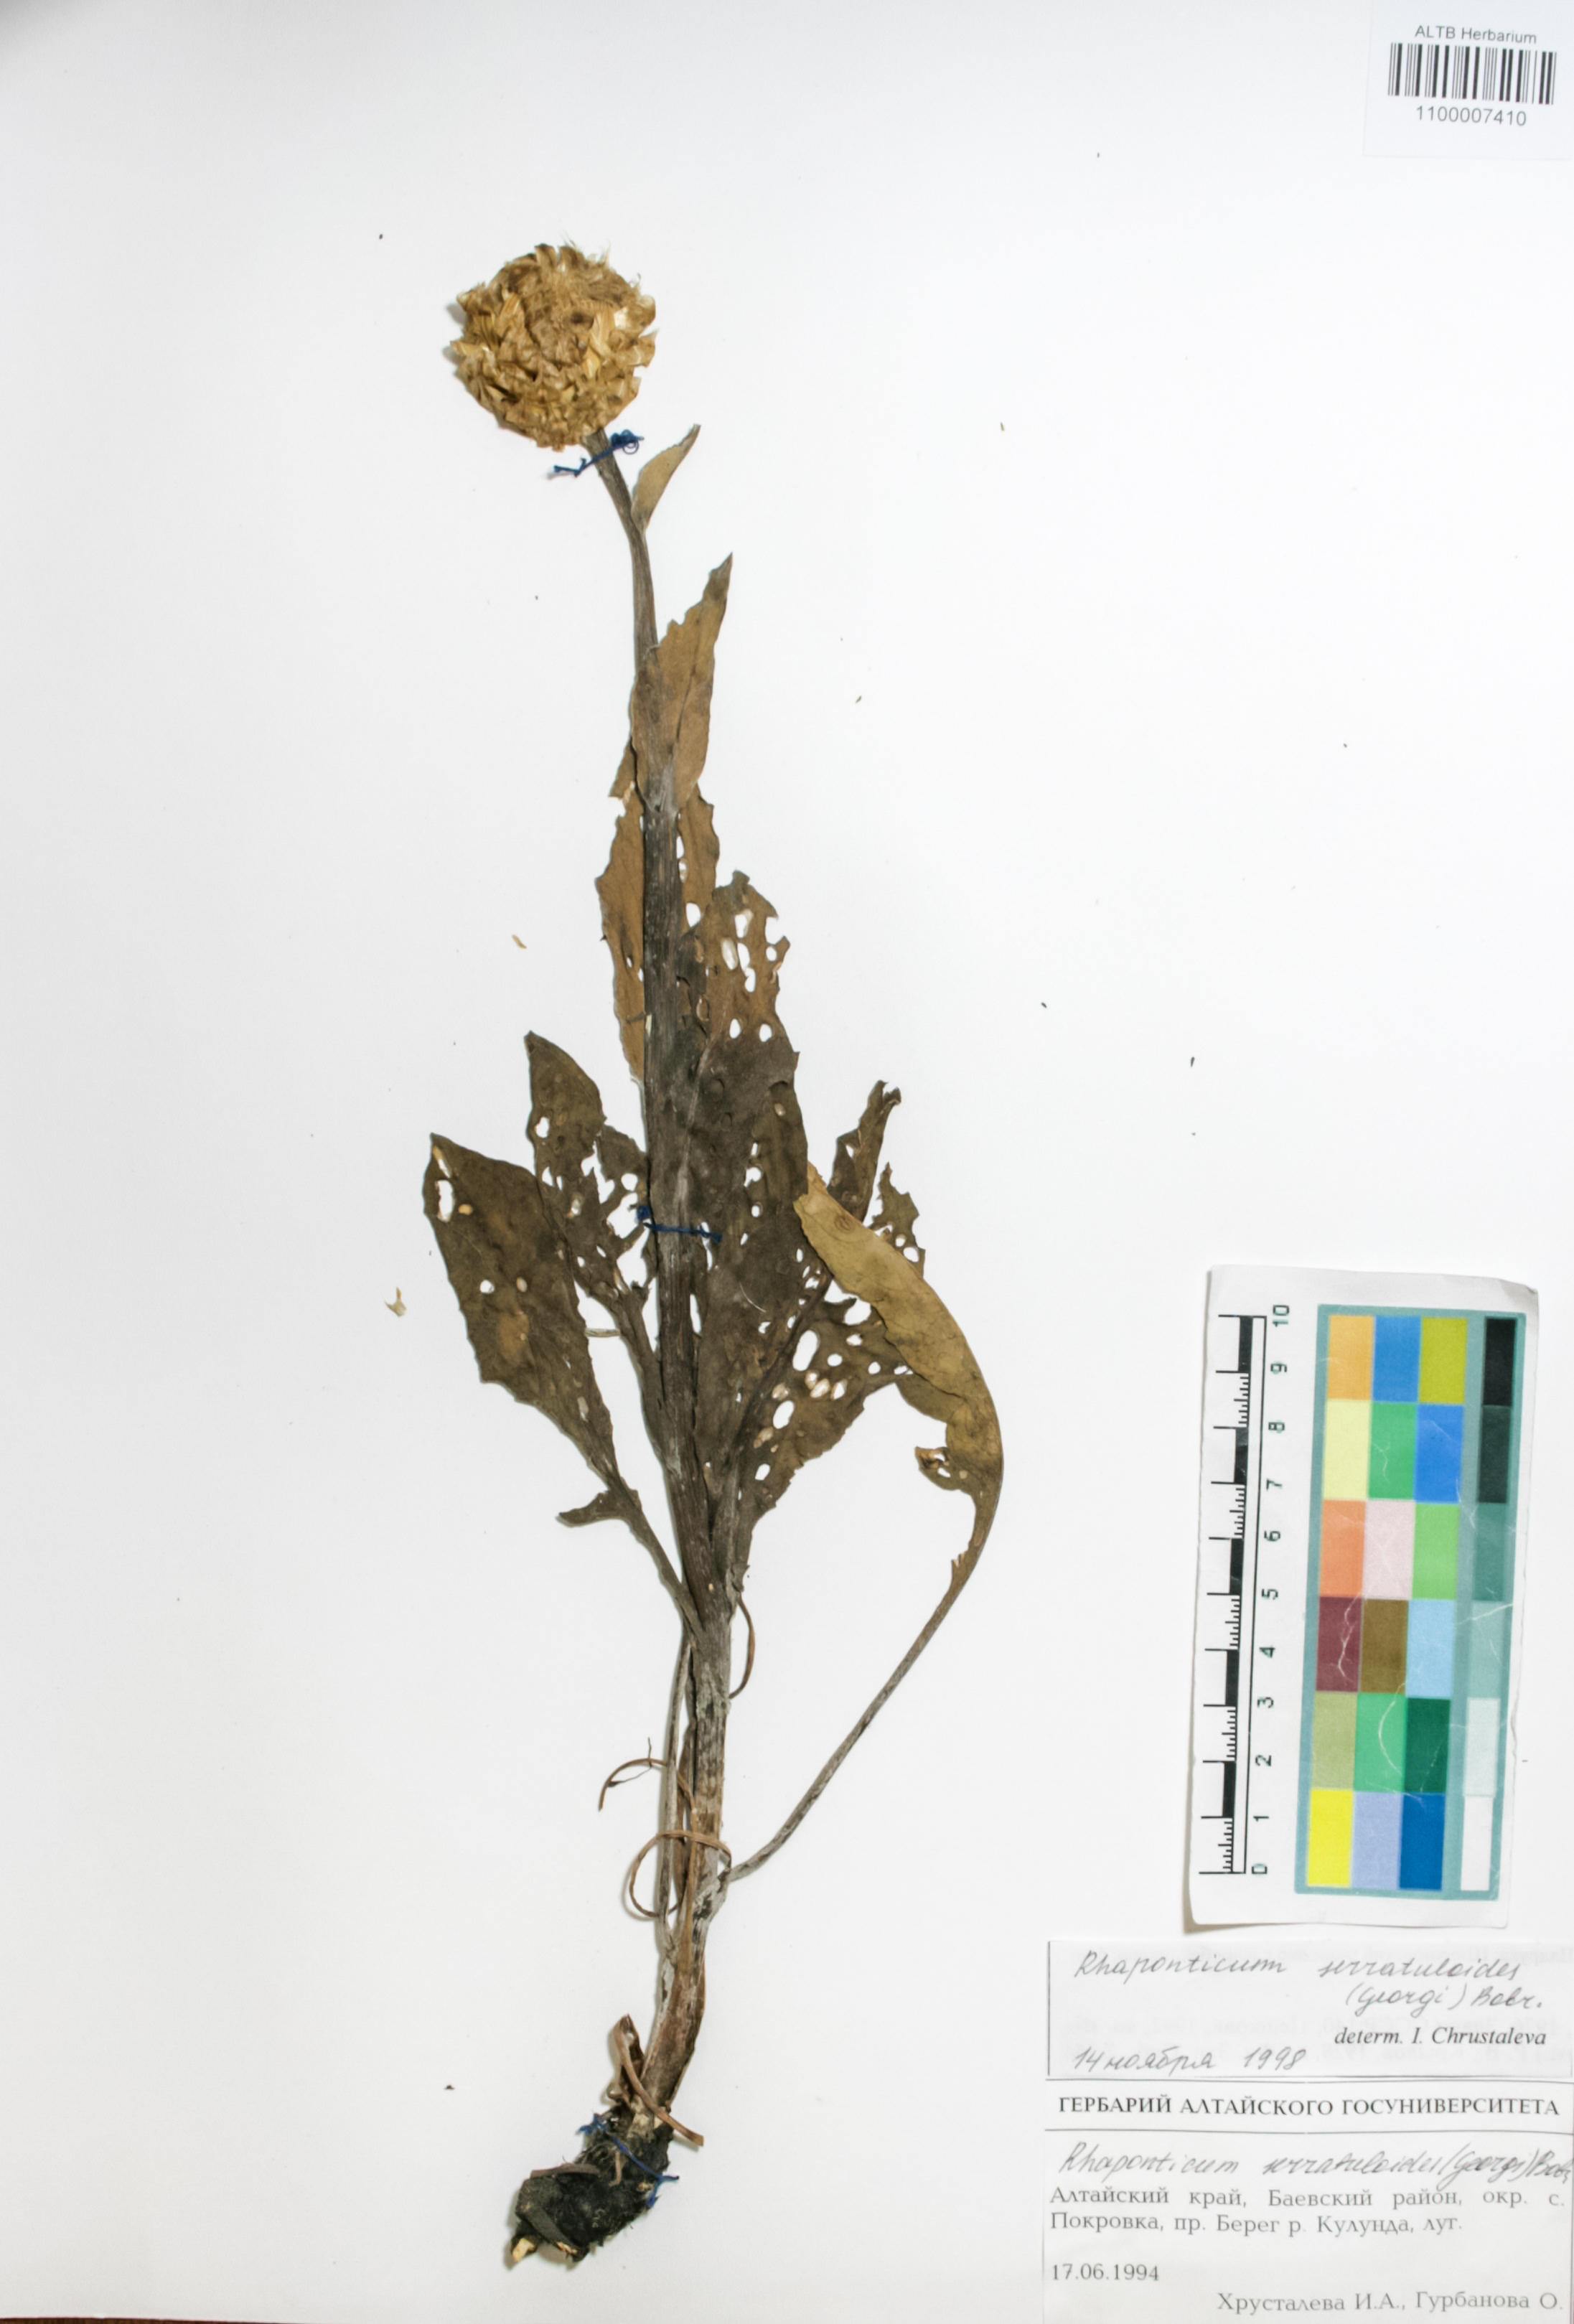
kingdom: Plantae
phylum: Tracheophyta
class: Magnoliopsida
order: Asterales
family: Asteraceae
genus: Leuzea
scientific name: Leuzea altaica
